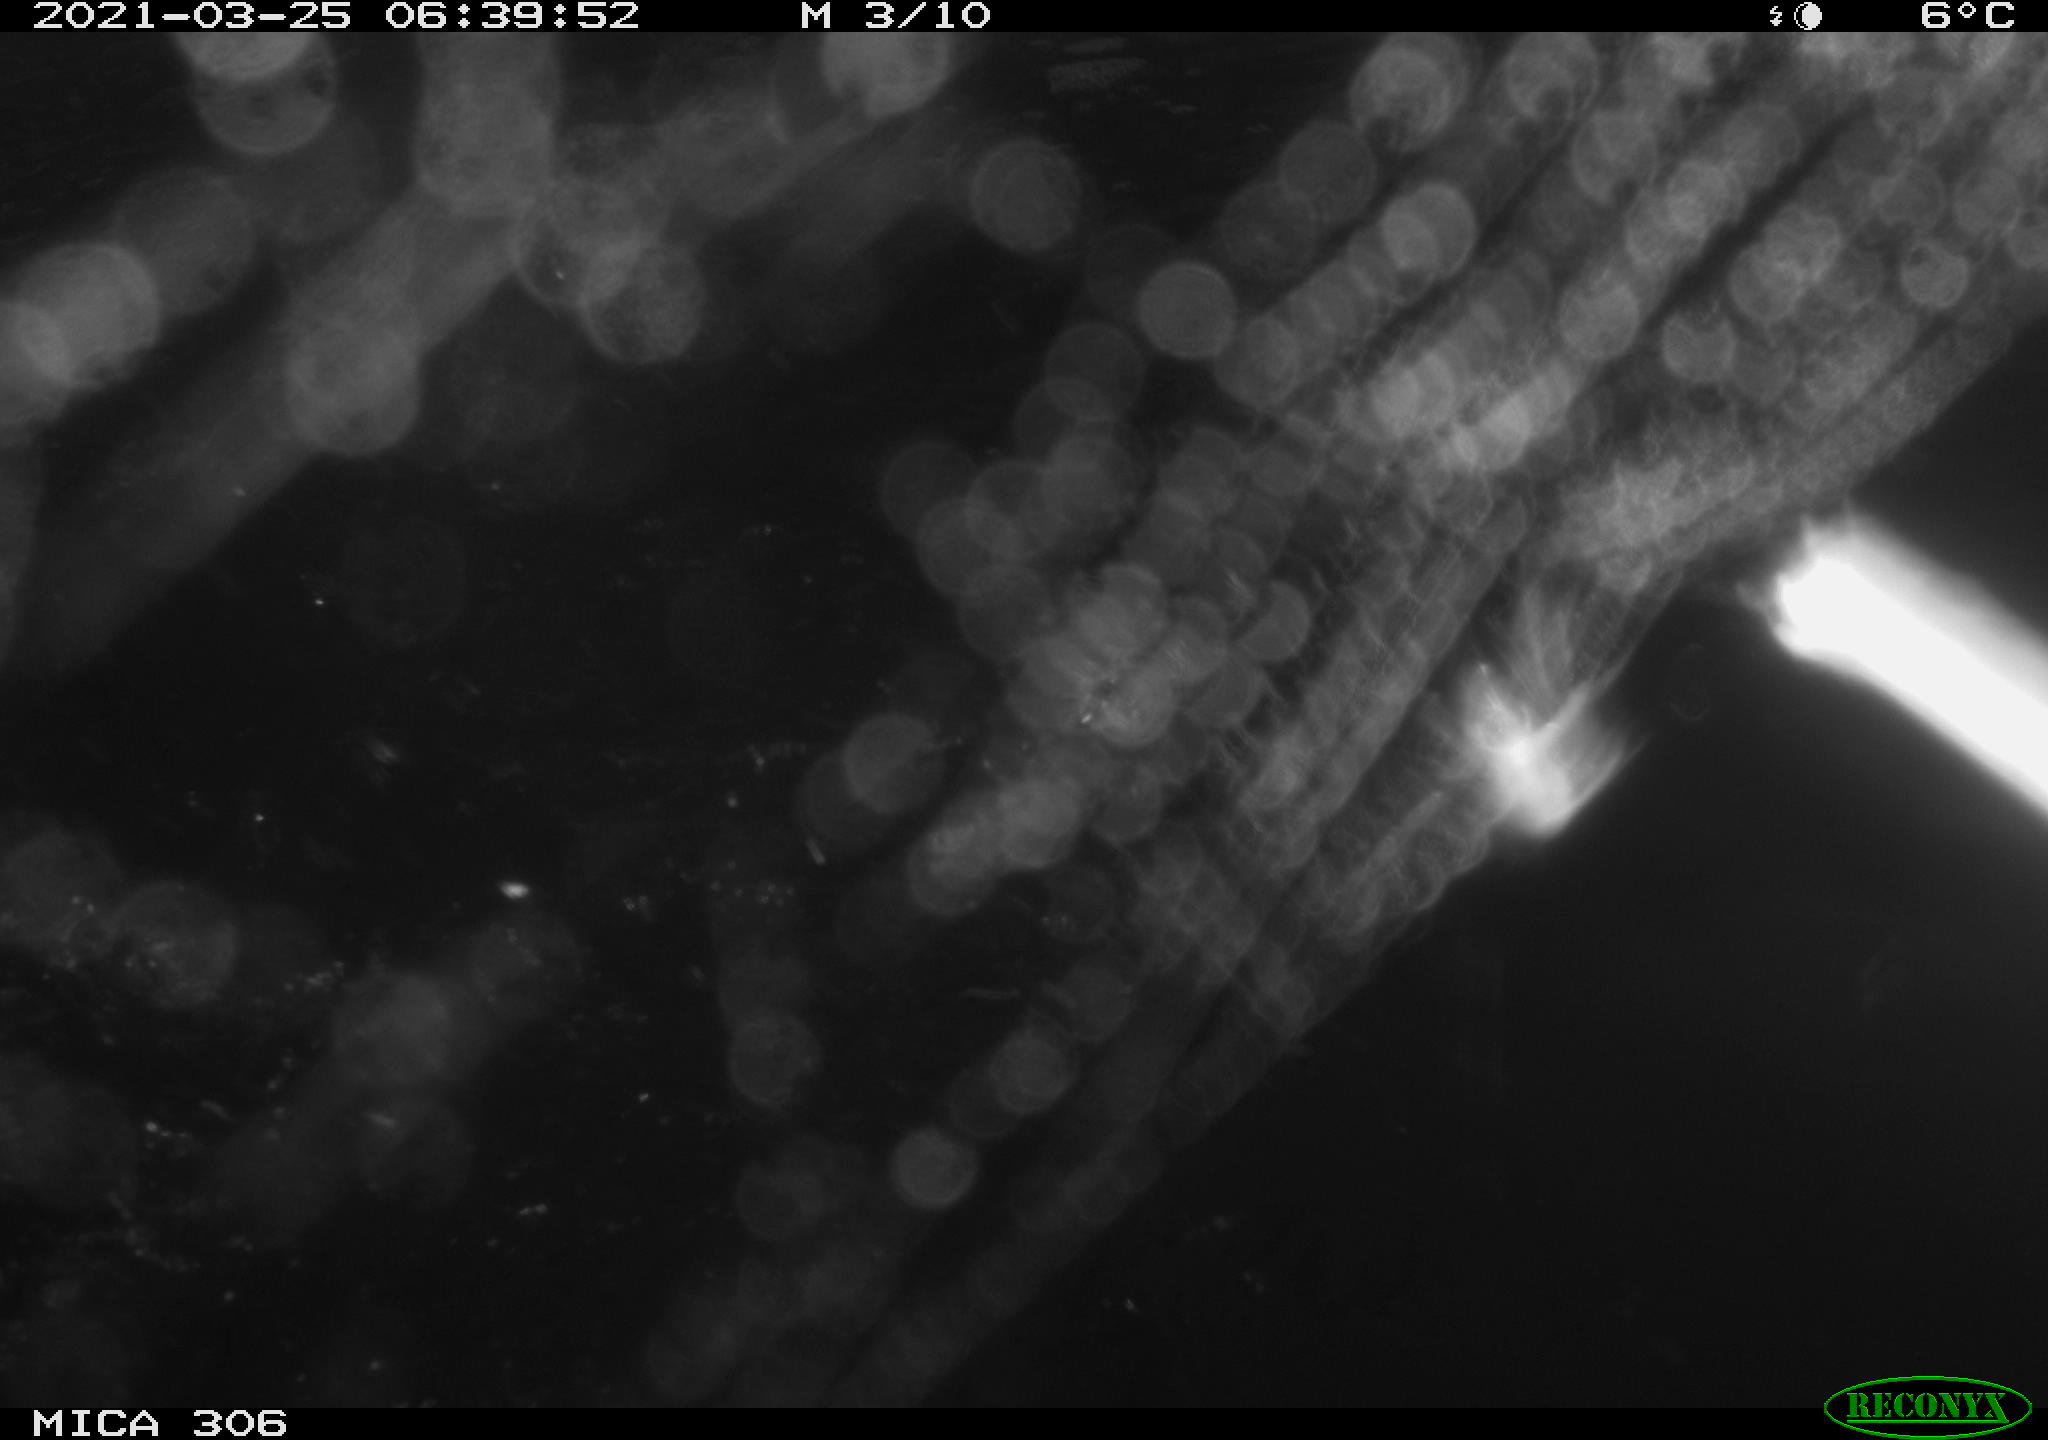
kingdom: Animalia
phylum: Chordata
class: Aves
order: Anseriformes
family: Anatidae
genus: Anas
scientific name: Anas platyrhynchos
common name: Mallard
